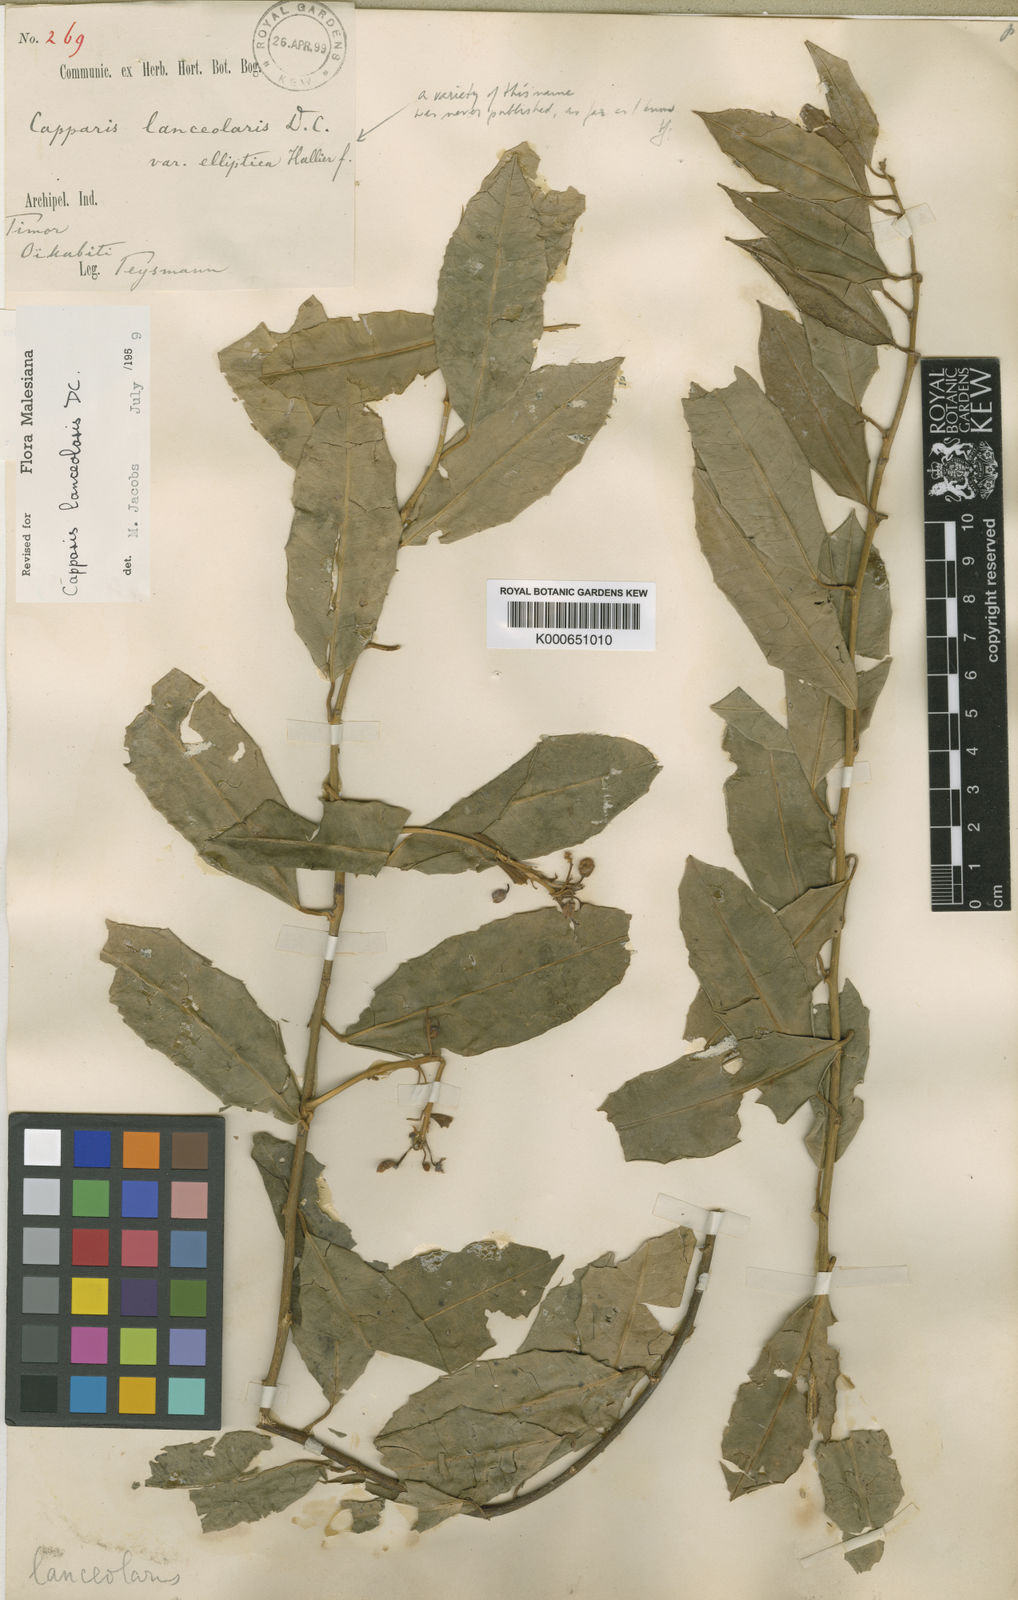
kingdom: Plantae
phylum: Tracheophyta
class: Magnoliopsida
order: Brassicales
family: Capparaceae
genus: Capparis
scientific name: Capparis lanceolaris
